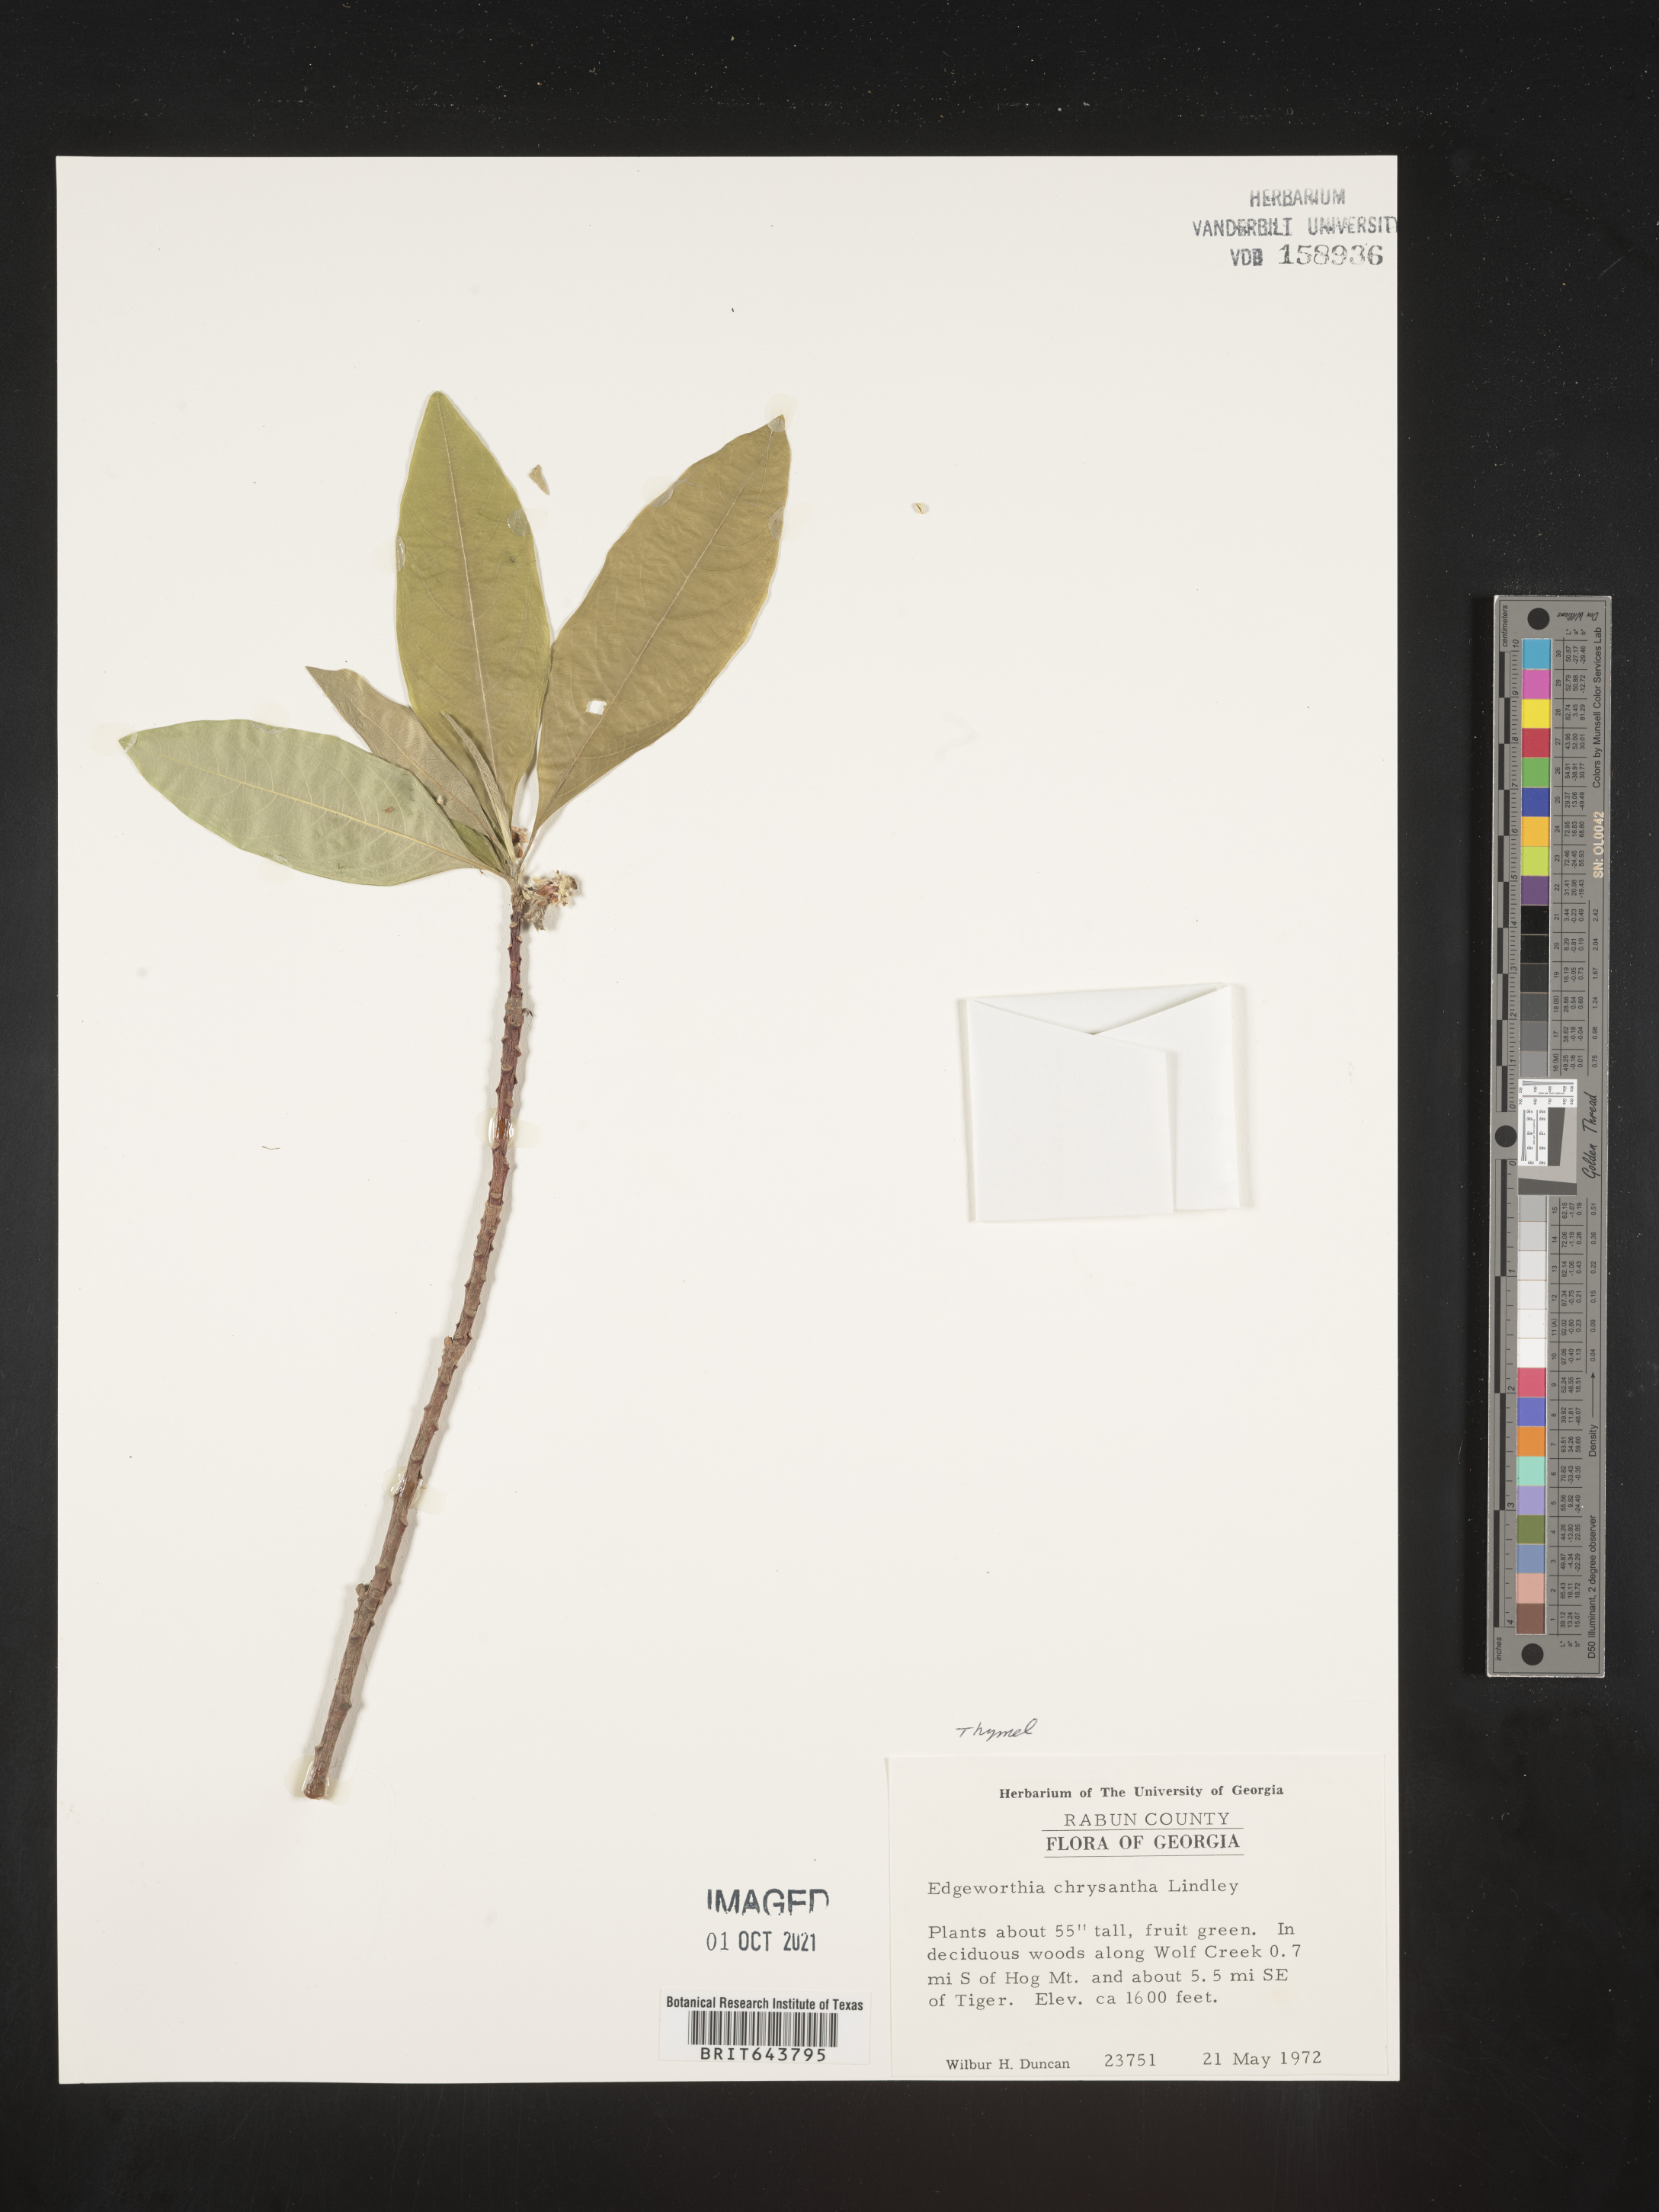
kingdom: Plantae
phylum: Tracheophyta
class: Magnoliopsida
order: Malvales
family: Thymelaeaceae
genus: Edgeworthia
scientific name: Edgeworthia chrysantha
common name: Oriental paperbush
